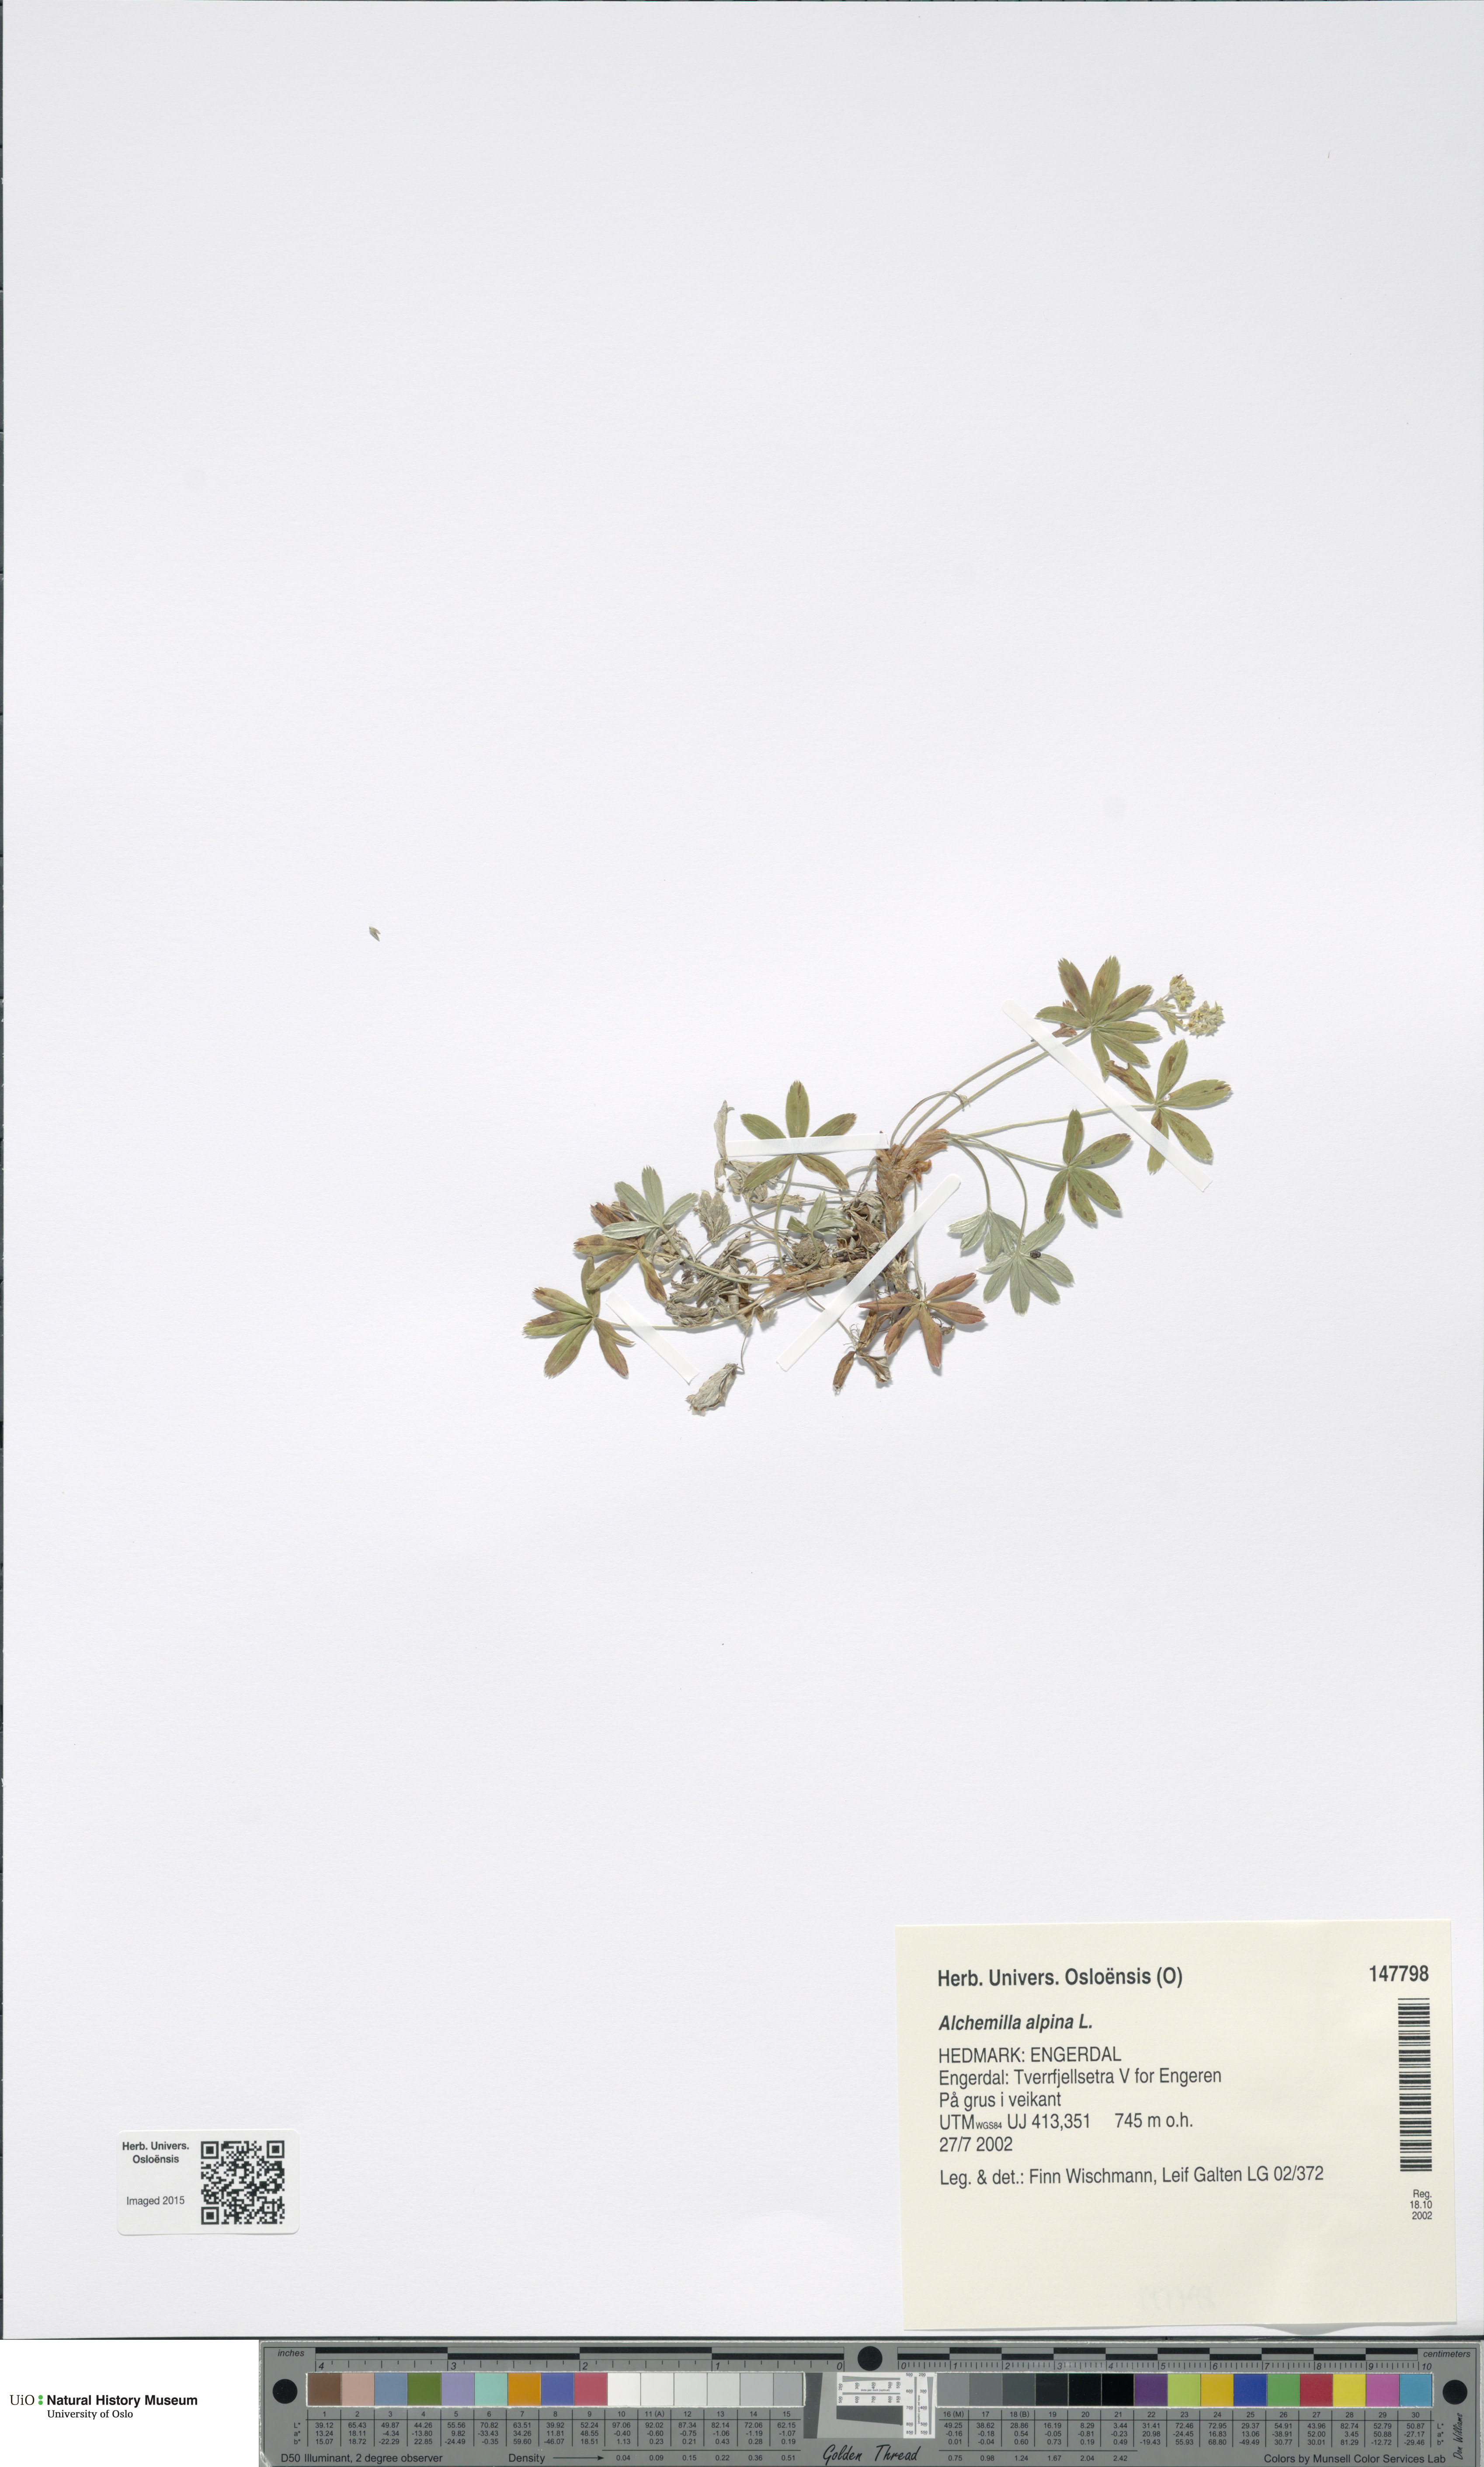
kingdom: Plantae
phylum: Tracheophyta
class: Magnoliopsida
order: Rosales
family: Rosaceae
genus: Alchemilla
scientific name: Alchemilla alpina
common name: Alpine lady's-mantle
